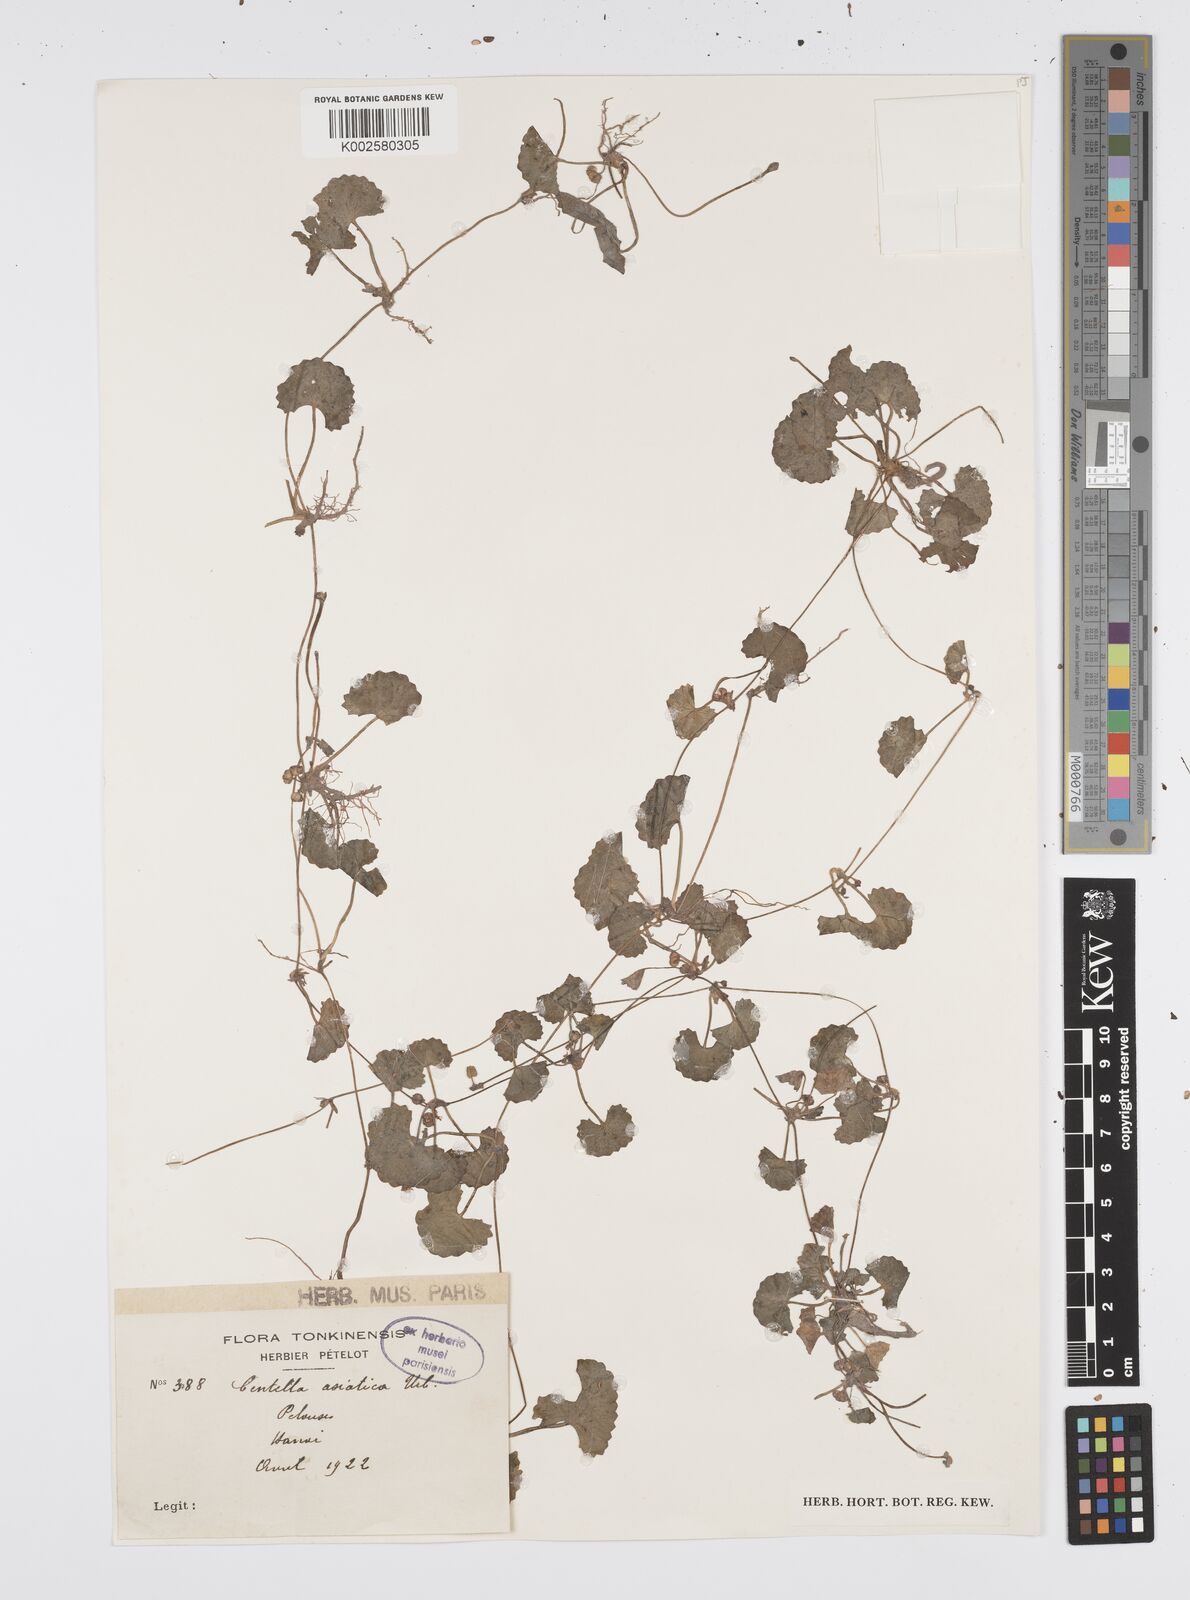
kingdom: Plantae
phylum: Tracheophyta
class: Magnoliopsida
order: Apiales
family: Apiaceae
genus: Centella
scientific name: Centella asiatica
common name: Spadeleaf
